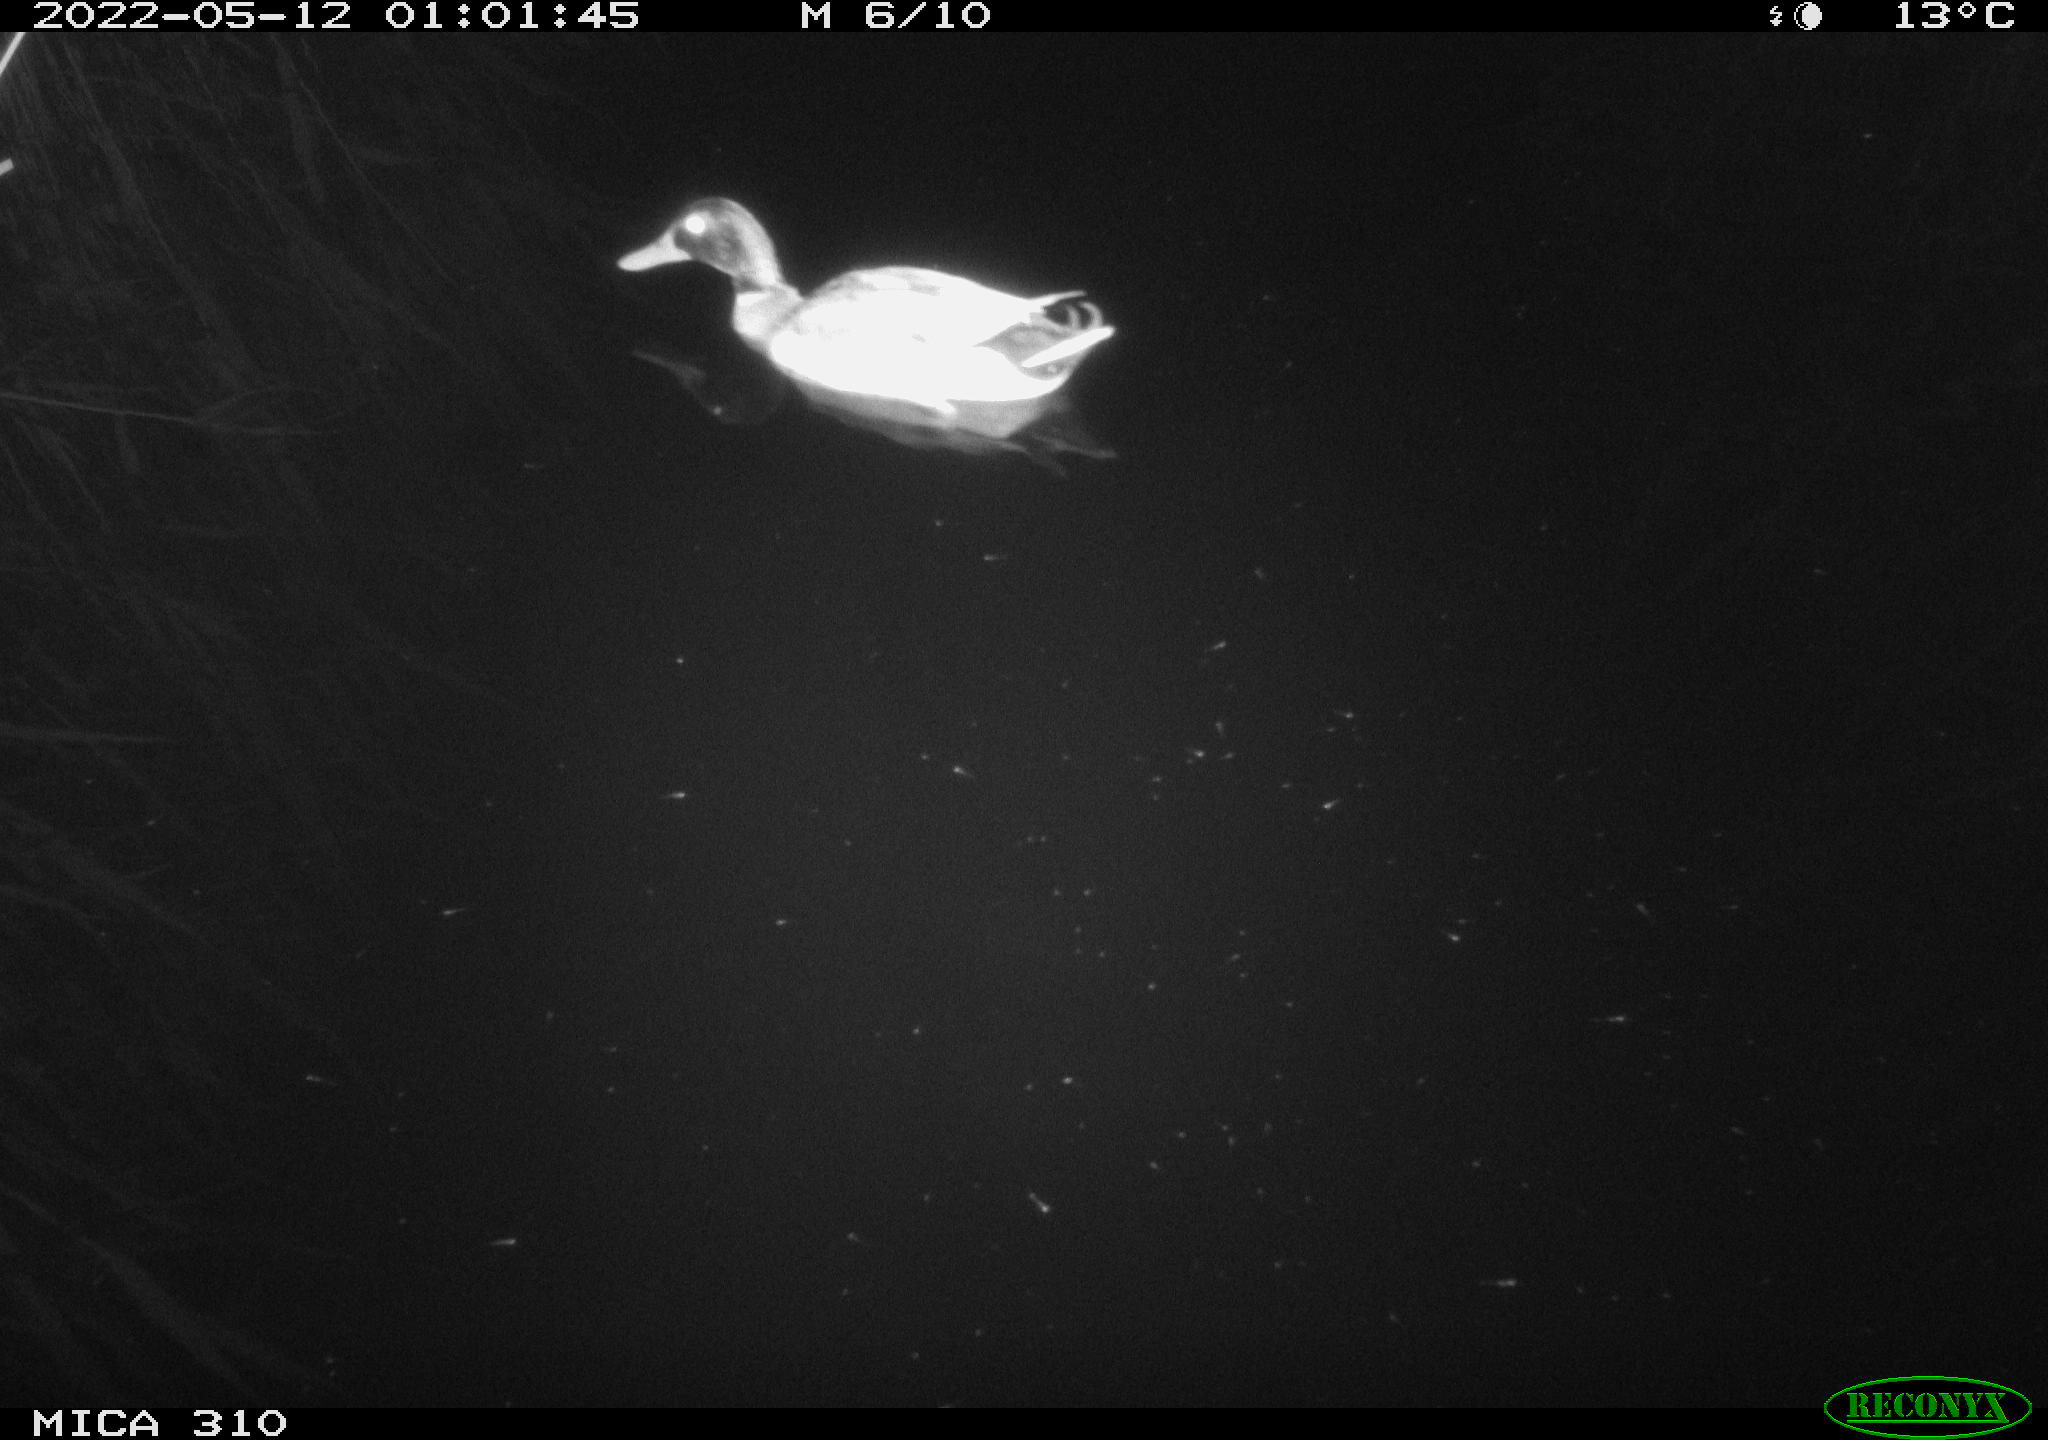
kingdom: Animalia
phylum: Chordata
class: Aves
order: Anseriformes
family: Anatidae
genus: Anas
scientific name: Anas platyrhynchos
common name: Mallard
